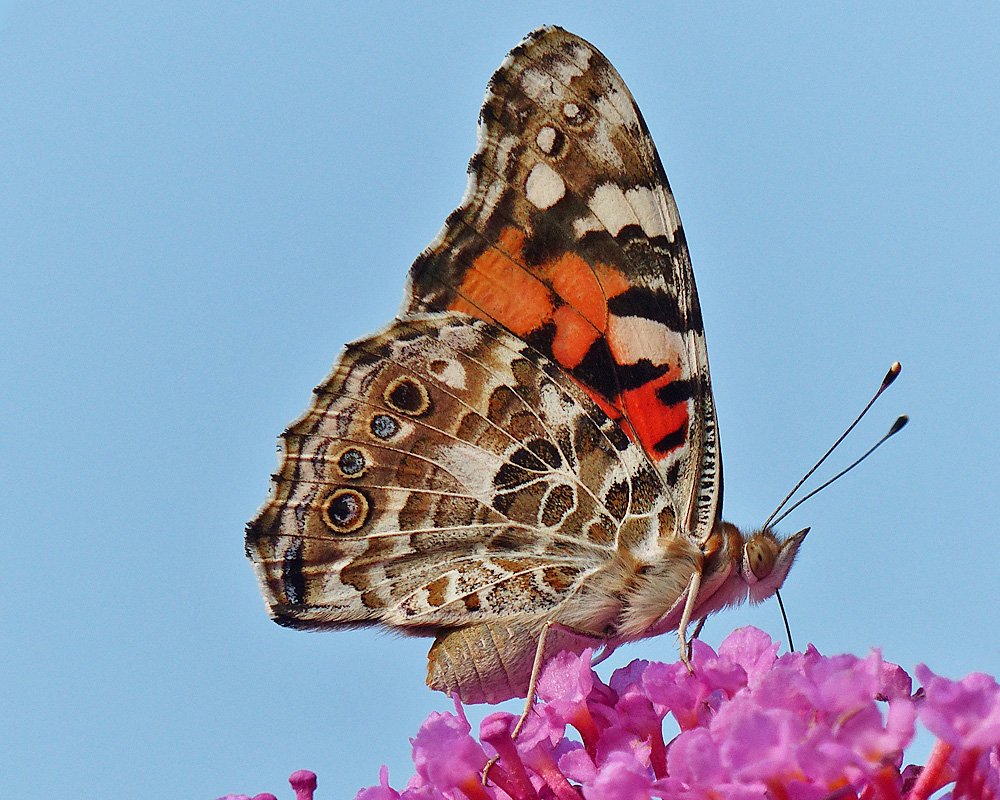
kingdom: Animalia
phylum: Arthropoda
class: Insecta
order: Lepidoptera
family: Nymphalidae
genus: Vanessa
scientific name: Vanessa cardui
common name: Painted Lady
